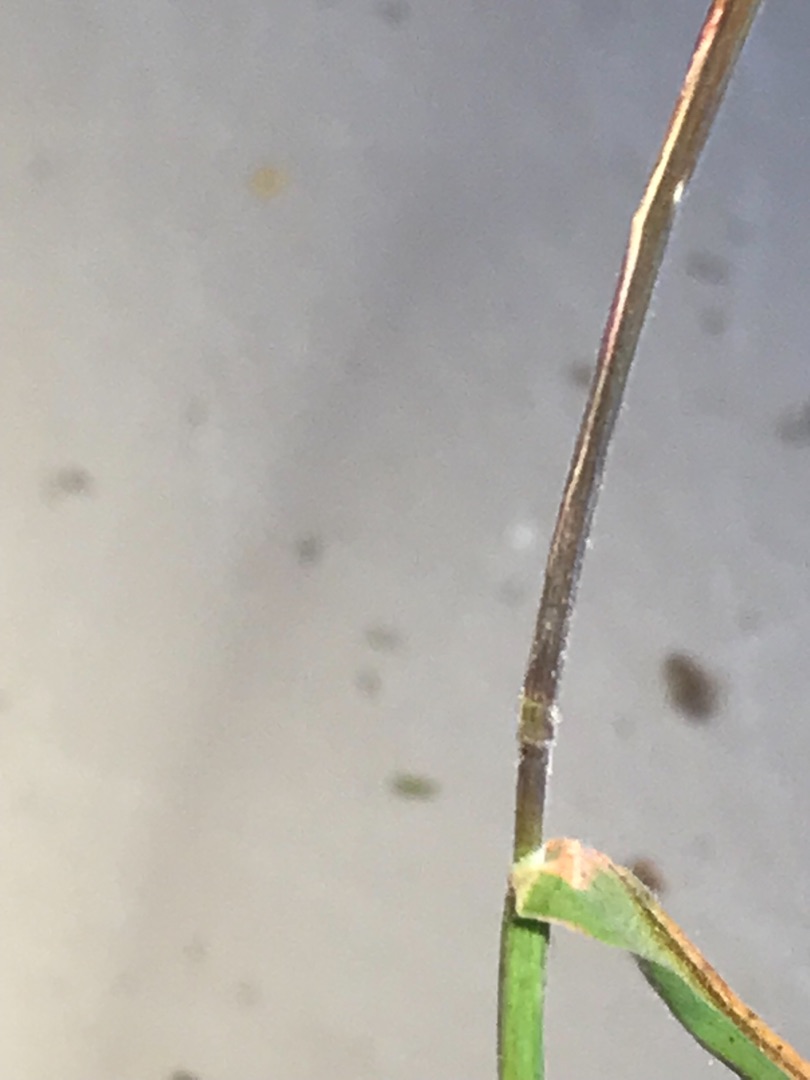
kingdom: Plantae
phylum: Tracheophyta
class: Liliopsida
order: Poales
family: Poaceae
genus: Holcus
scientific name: Holcus lanatus
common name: Fløjlsgræs
